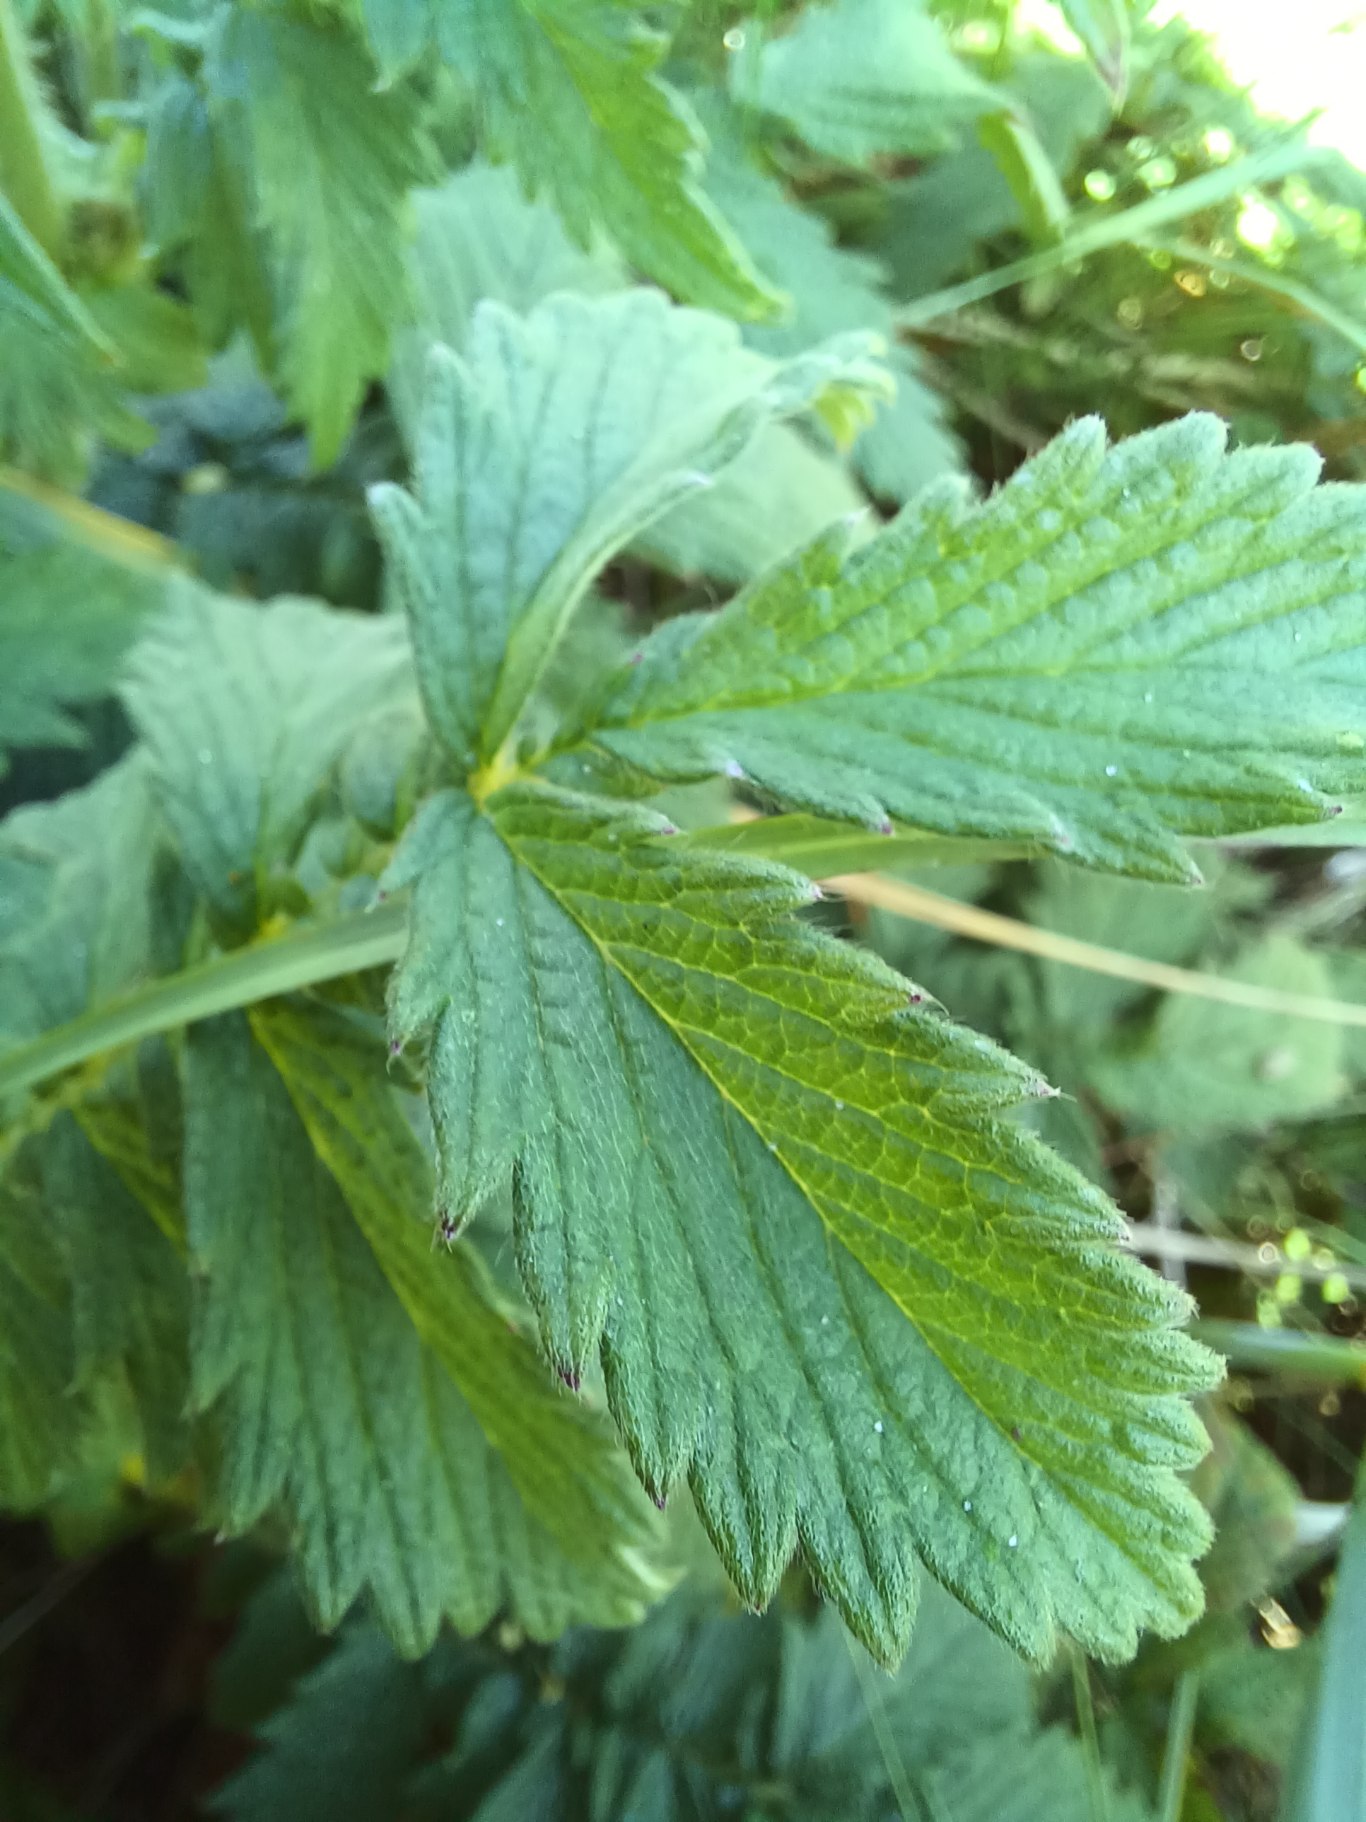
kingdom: Plantae
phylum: Tracheophyta
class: Magnoliopsida
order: Rosales
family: Rosaceae
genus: Agrimonia
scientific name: Agrimonia eupatoria
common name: Almindelig agermåne
